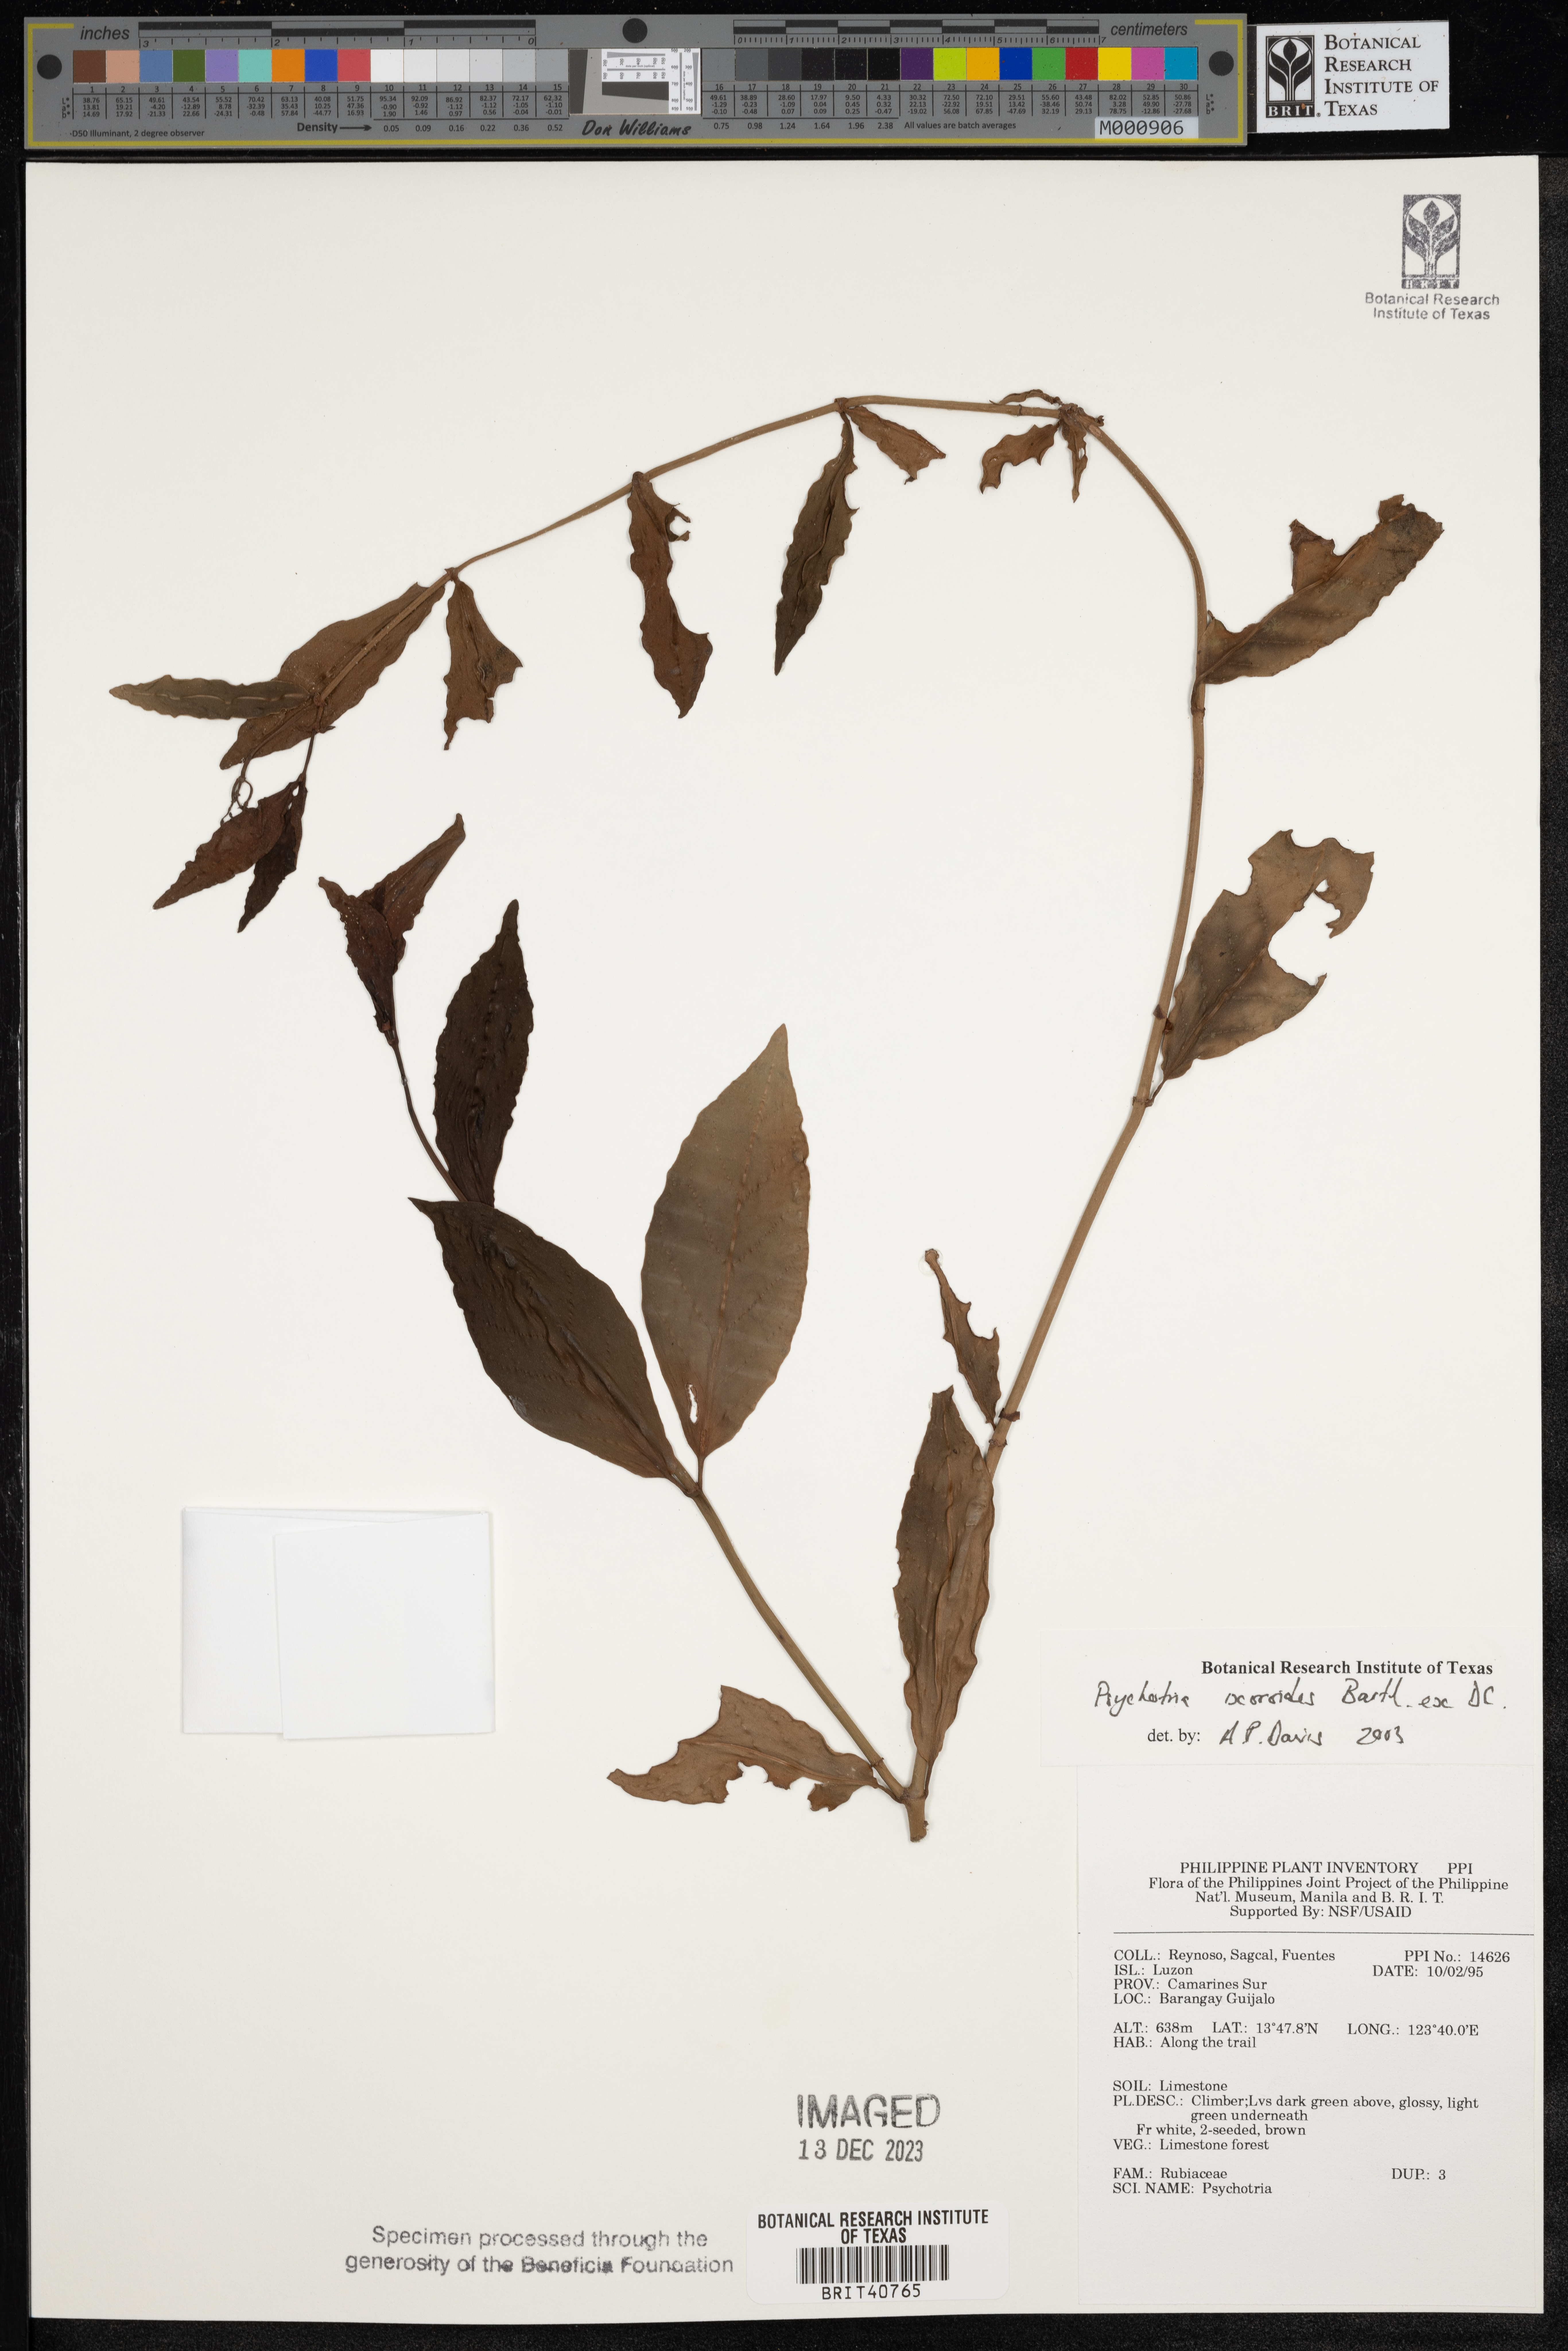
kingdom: Plantae
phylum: Tracheophyta
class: Magnoliopsida
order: Gentianales
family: Rubiaceae
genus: Psychotria
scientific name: Psychotria ixoroides
